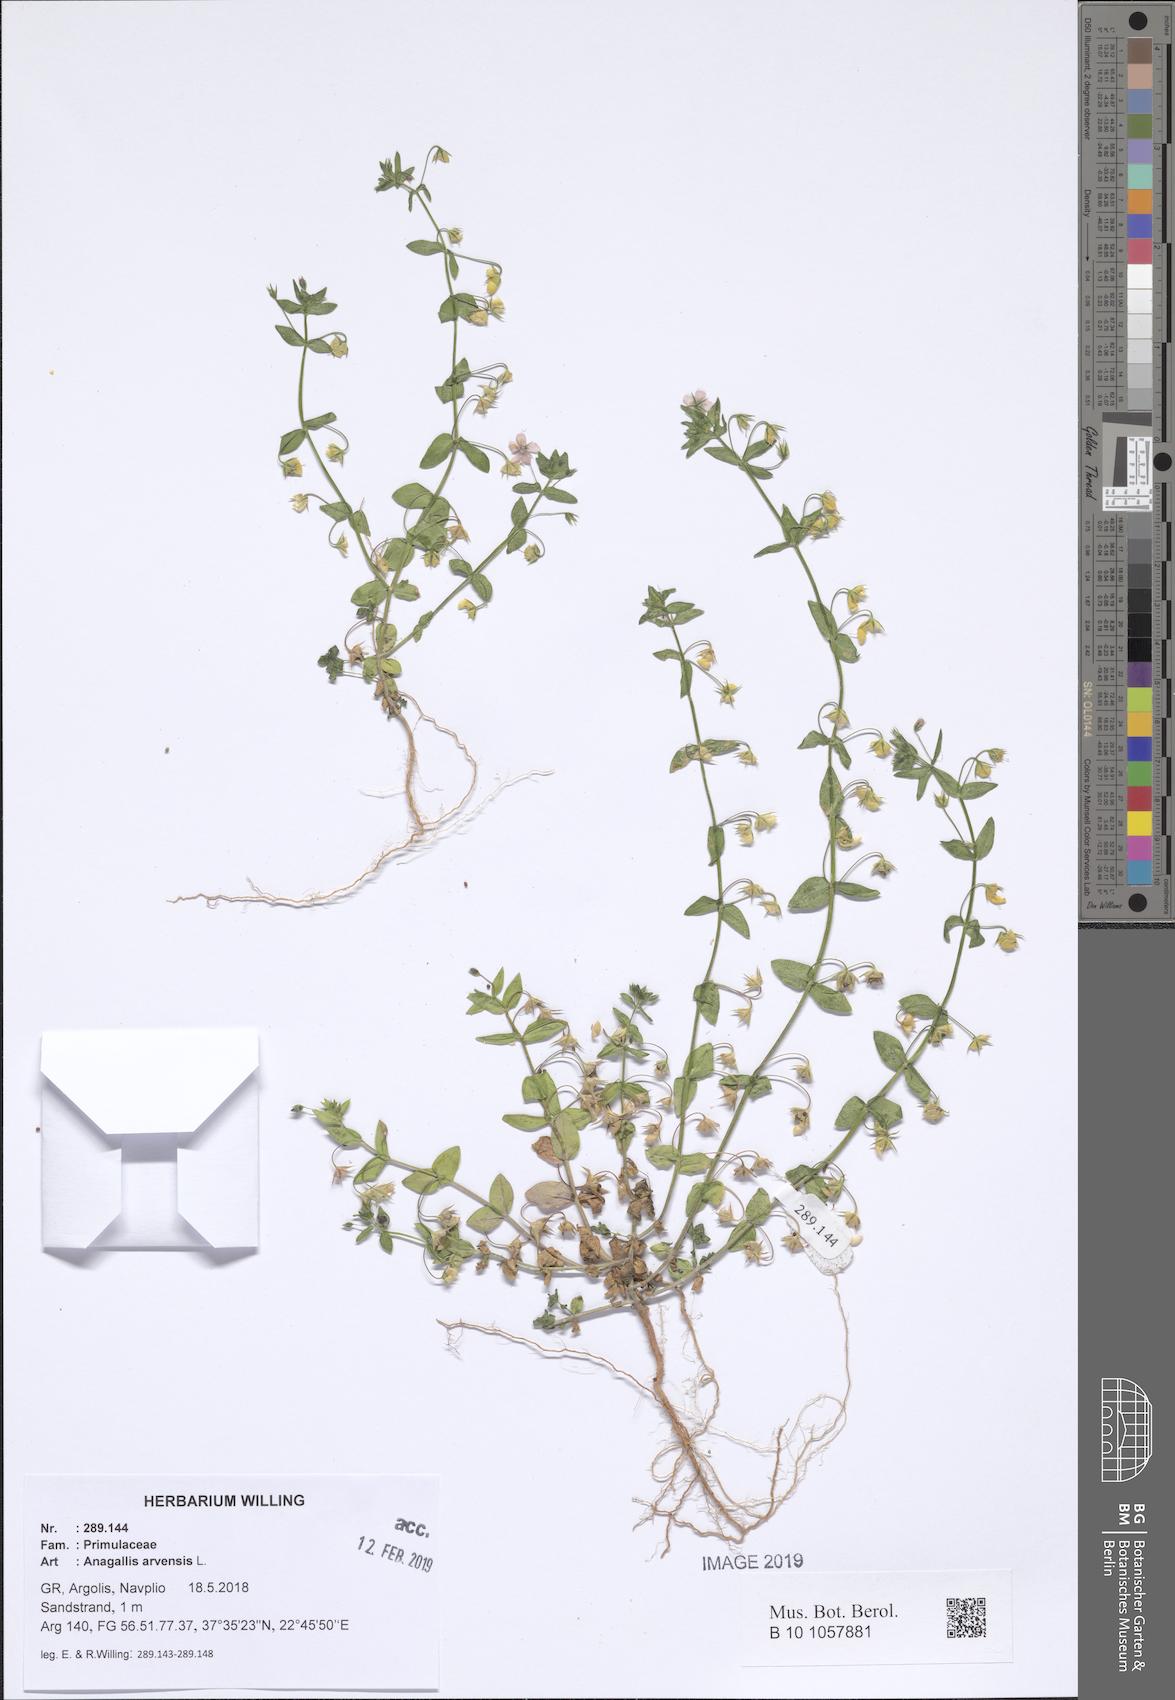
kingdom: Plantae
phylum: Tracheophyta
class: Magnoliopsida
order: Ericales
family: Primulaceae
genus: Lysimachia
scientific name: Lysimachia arvensis
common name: Scarlet pimpernel
